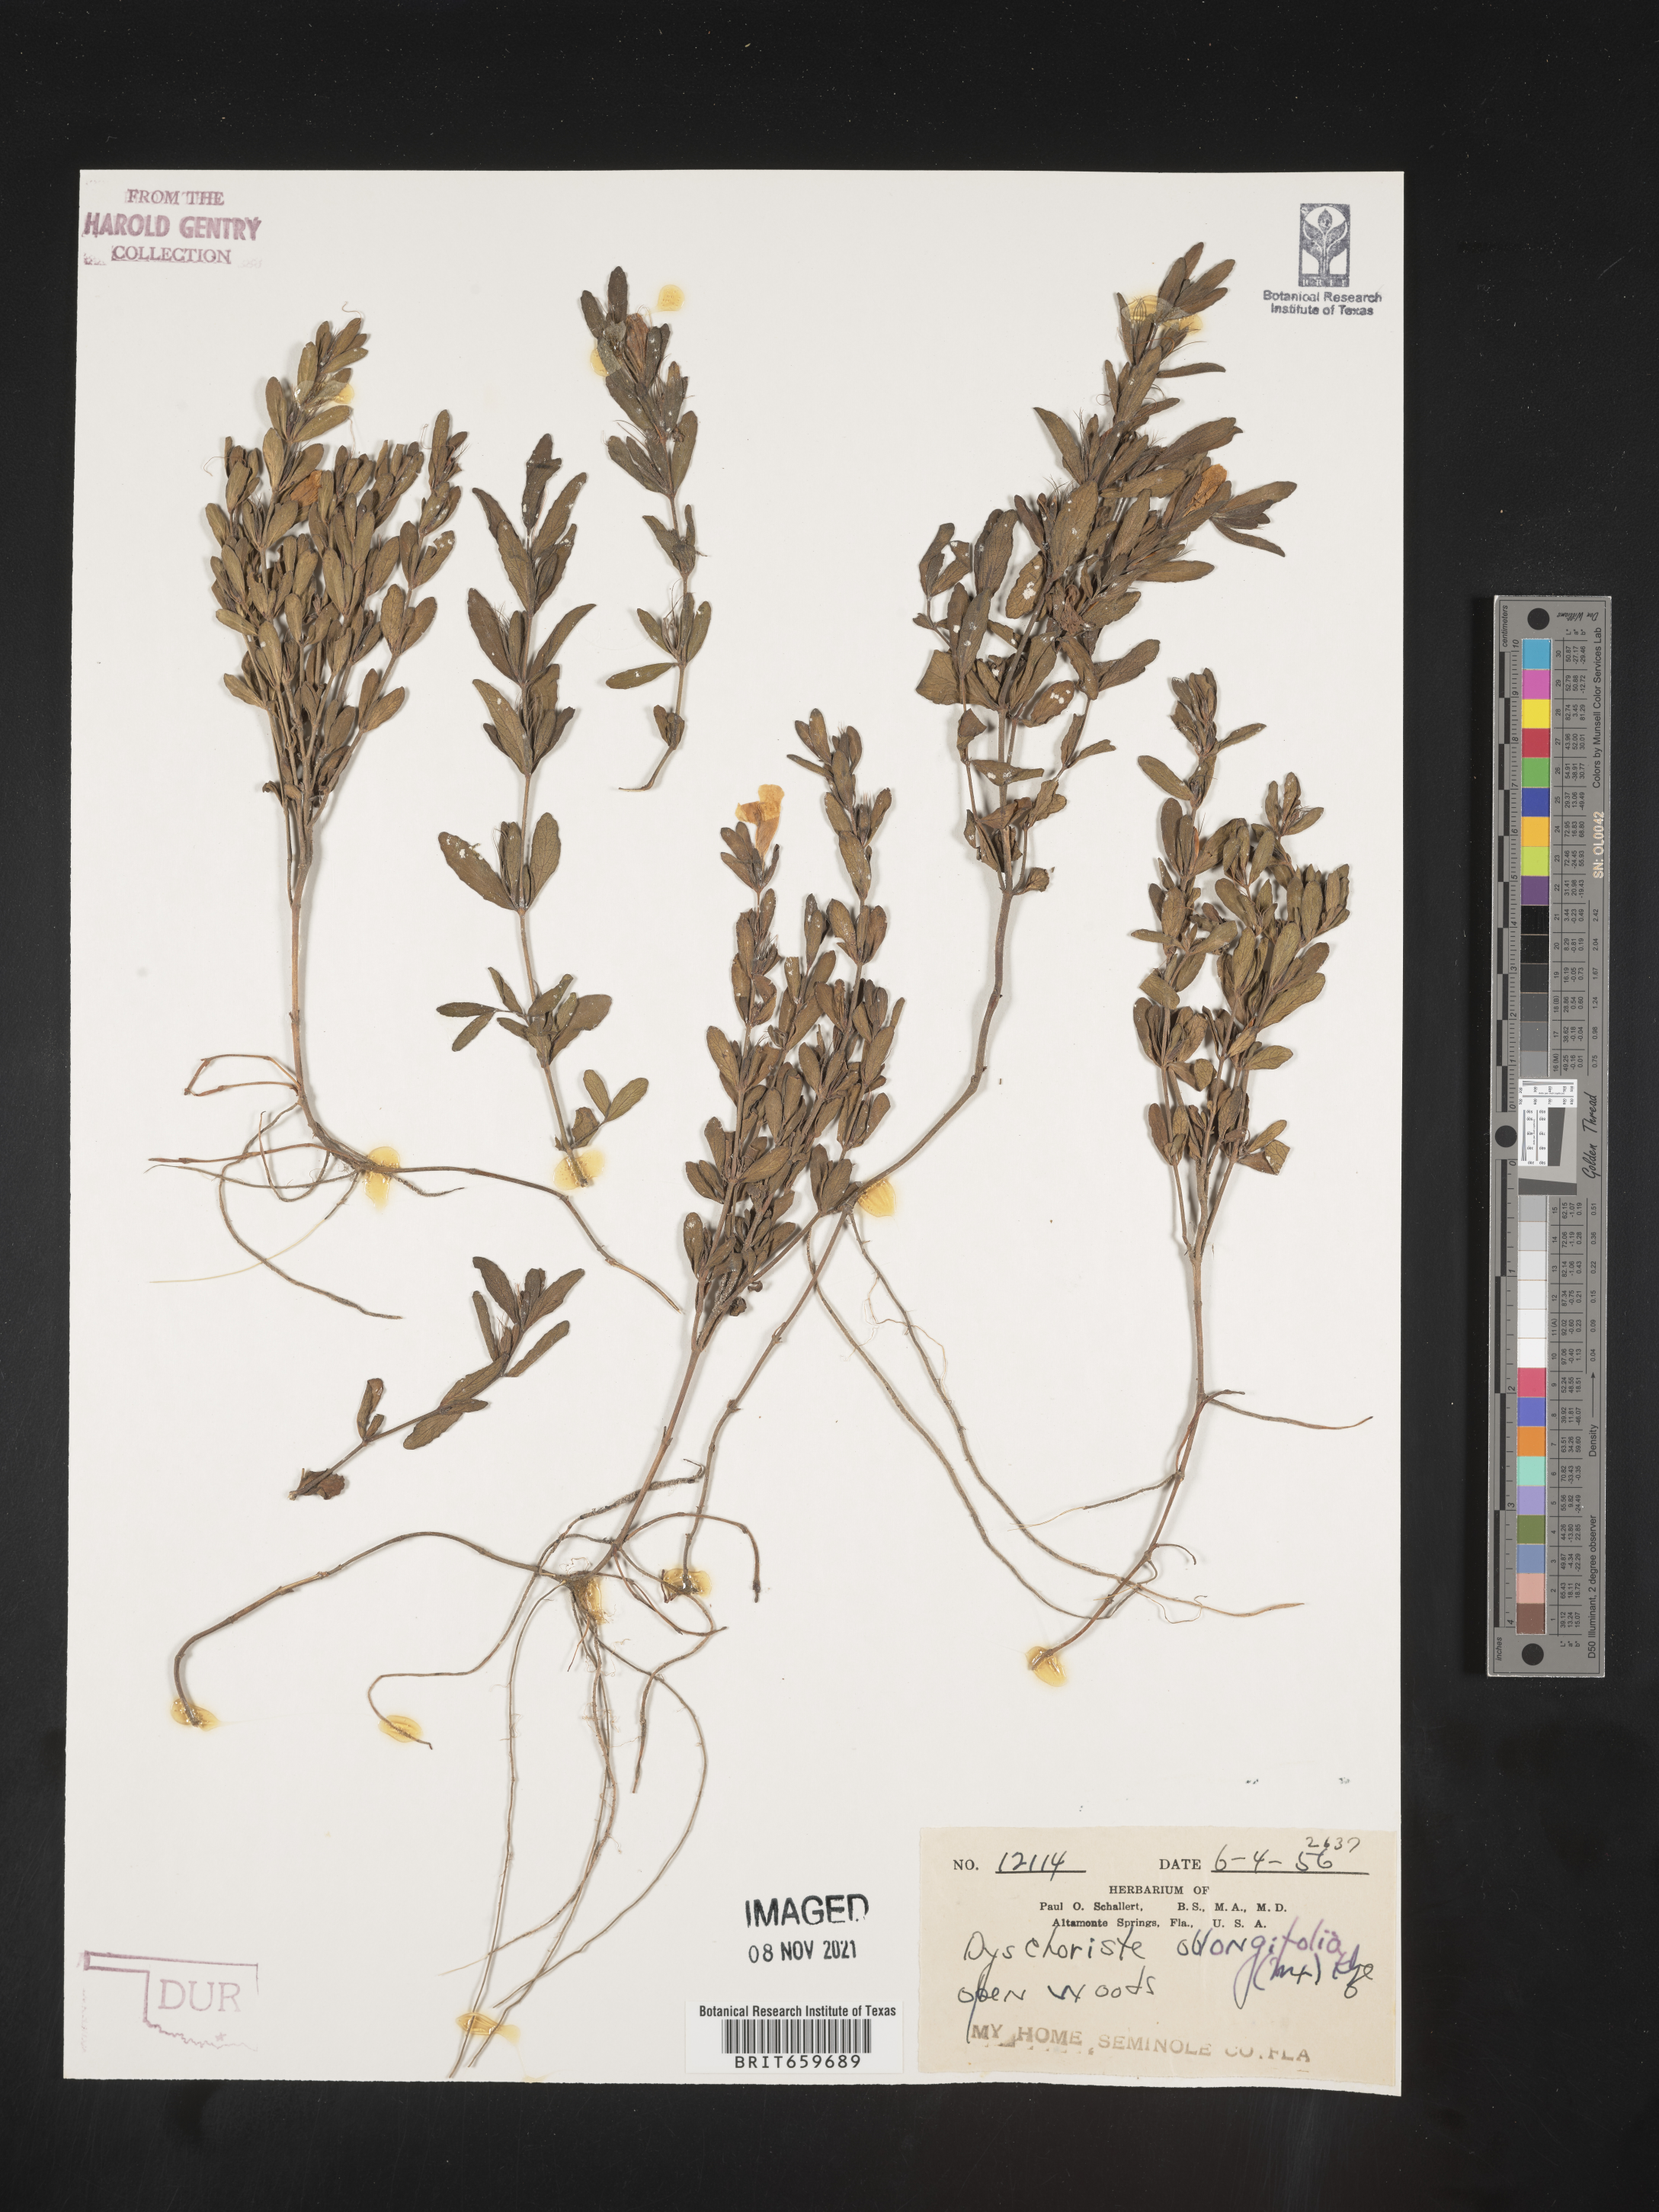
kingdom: Plantae
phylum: Tracheophyta
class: Magnoliopsida
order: Lamiales
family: Acanthaceae
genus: Dyschoriste
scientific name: Dyschoriste oblongifolia
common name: Blue twinflower
